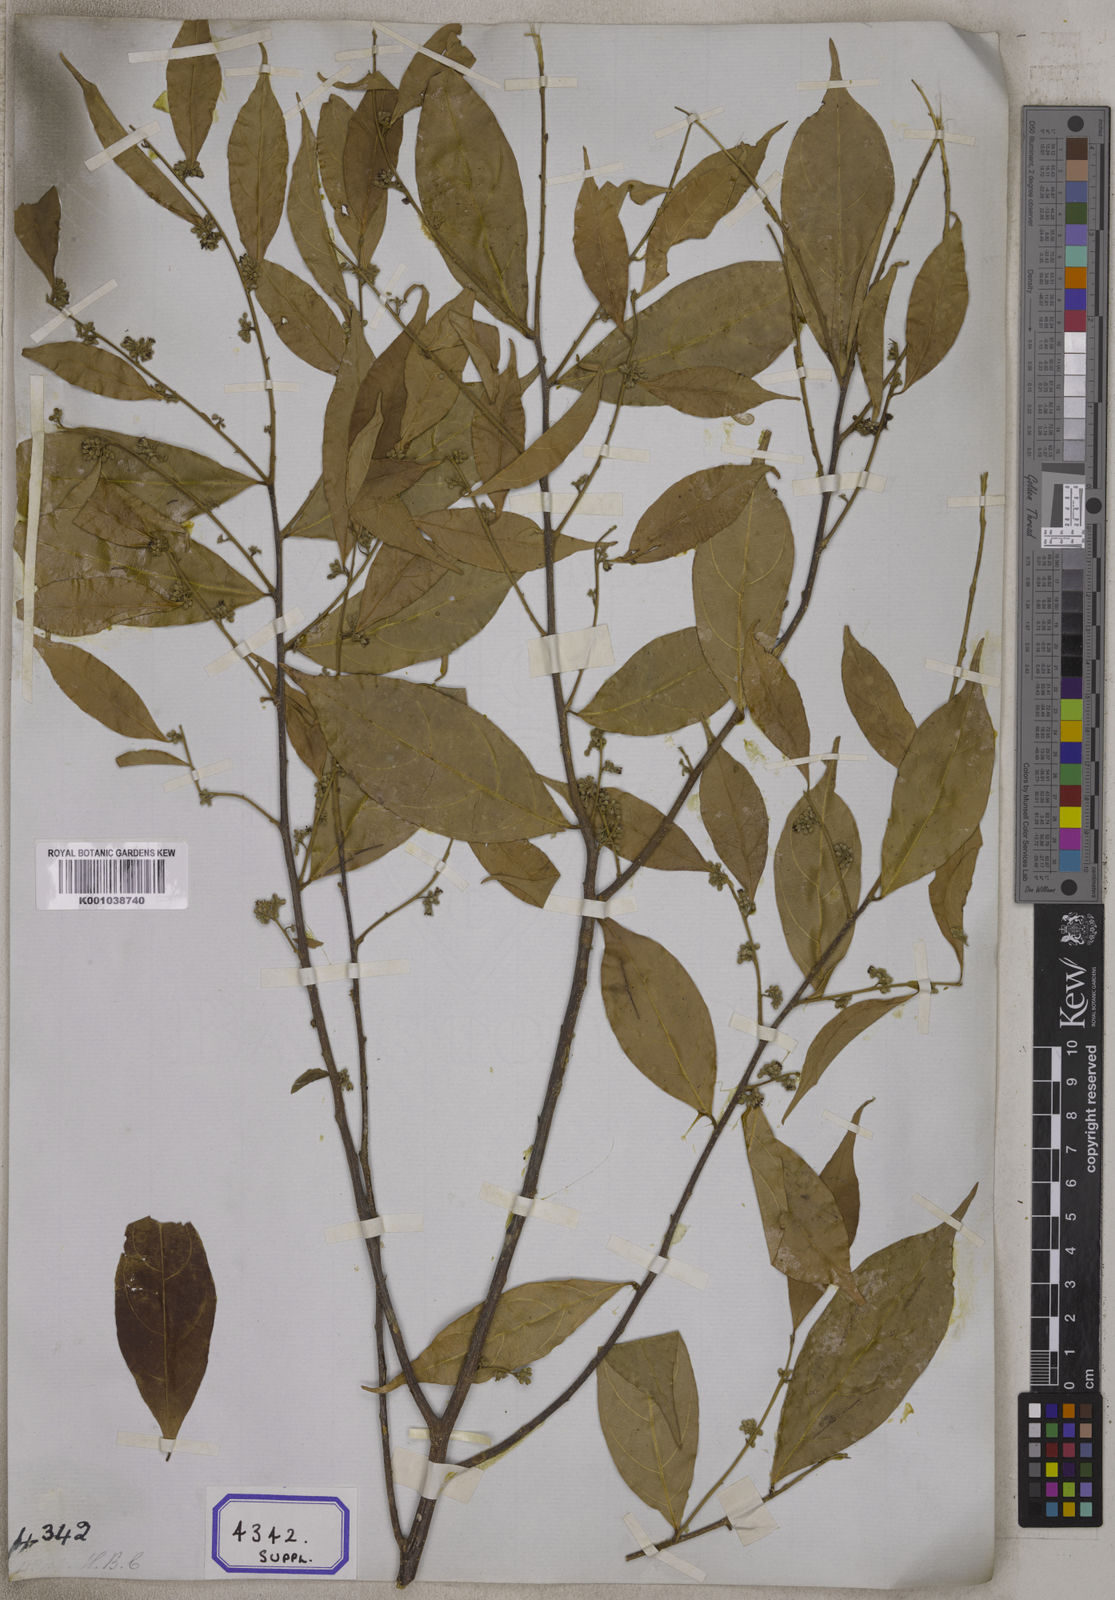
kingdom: Plantae
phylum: Tracheophyta
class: Magnoliopsida
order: Malpighiales
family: Dichapetalaceae
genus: Dichapetalum
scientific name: Dichapetalum gelonioides
